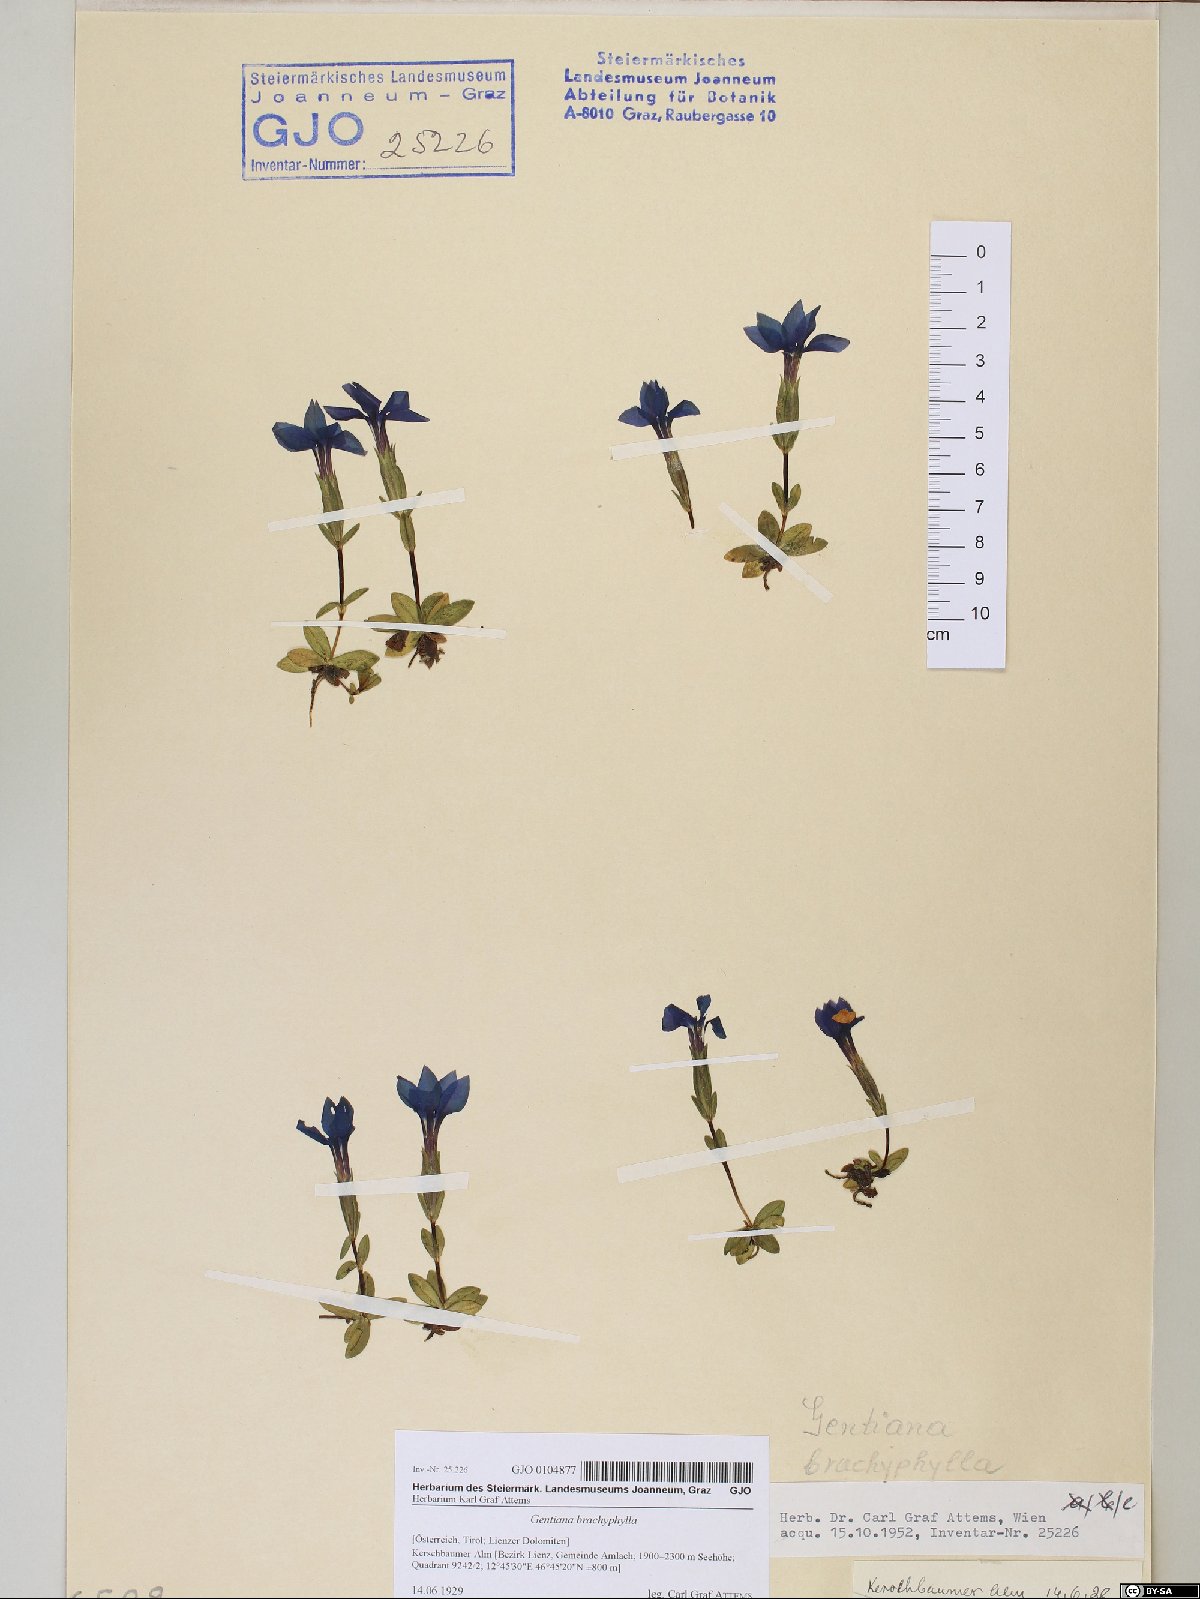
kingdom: Plantae
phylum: Tracheophyta
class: Magnoliopsida
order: Gentianales
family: Gentianaceae
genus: Gentiana
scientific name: Gentiana brachyphylla
